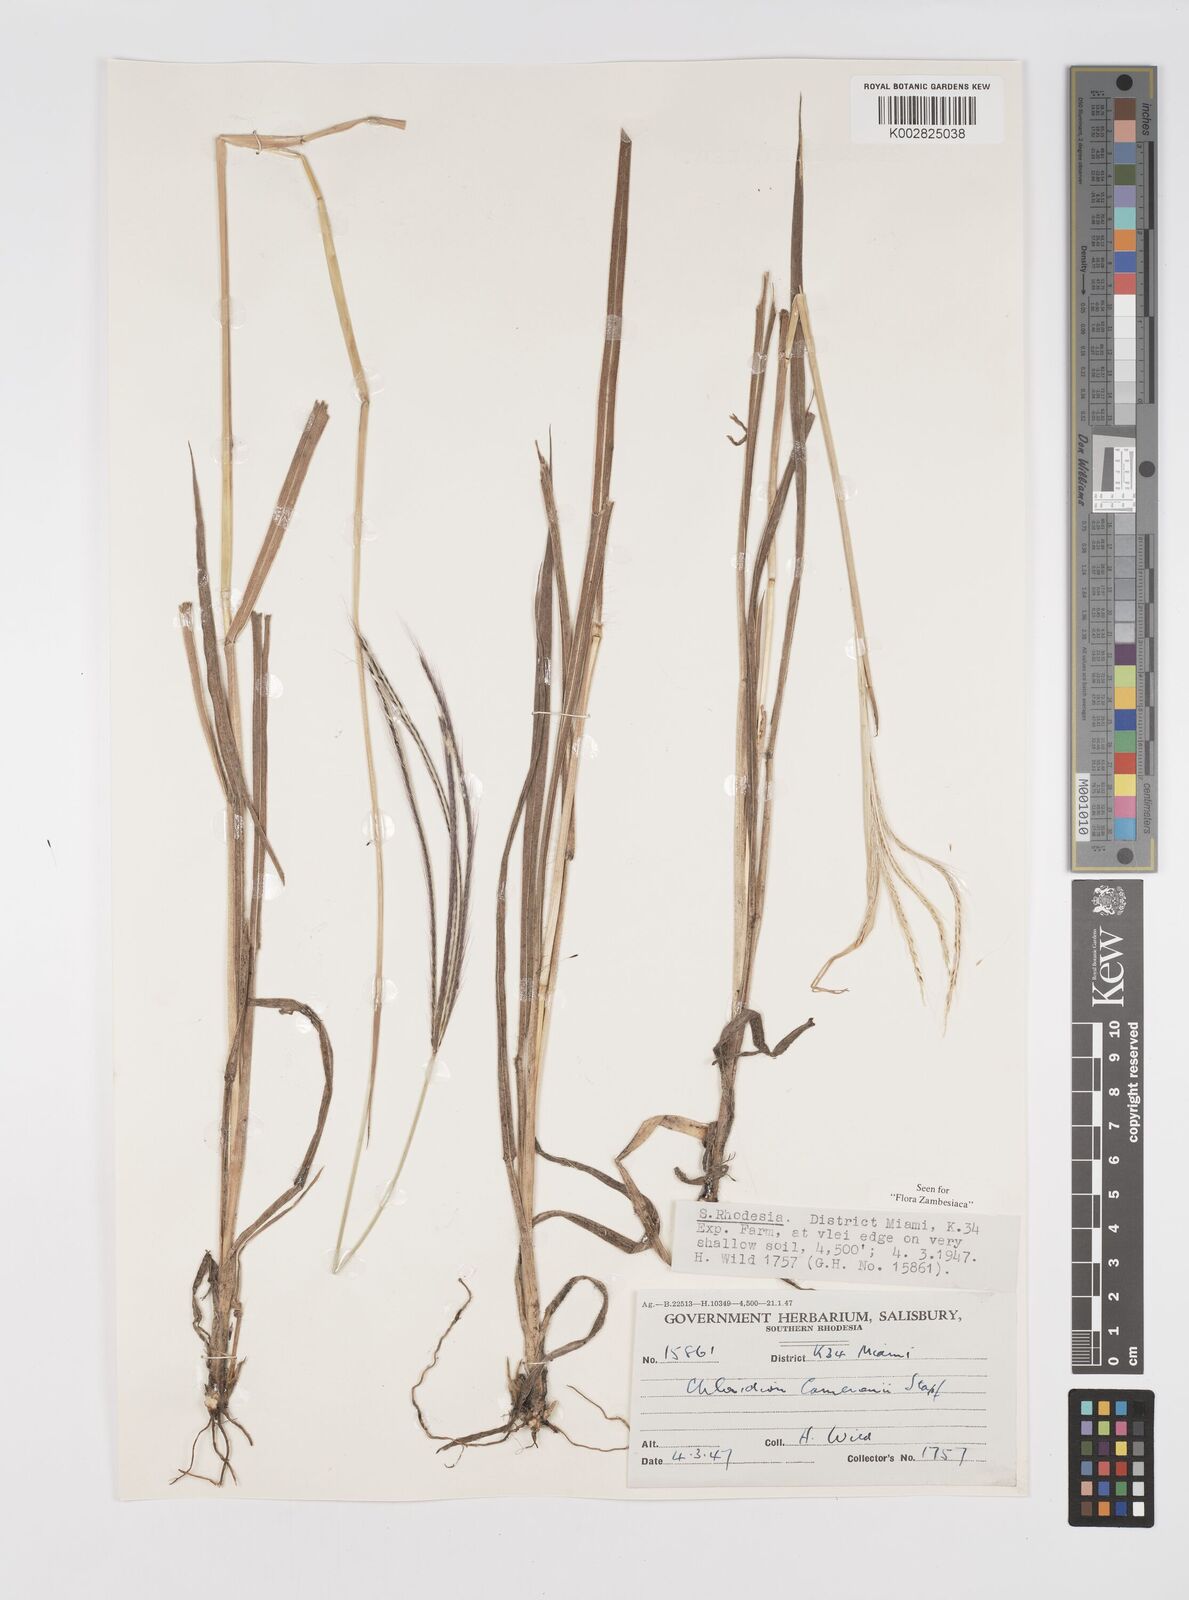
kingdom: Plantae
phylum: Tracheophyta
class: Liliopsida
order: Poales
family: Poaceae
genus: Stereochlaena
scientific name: Stereochlaena cameronii
